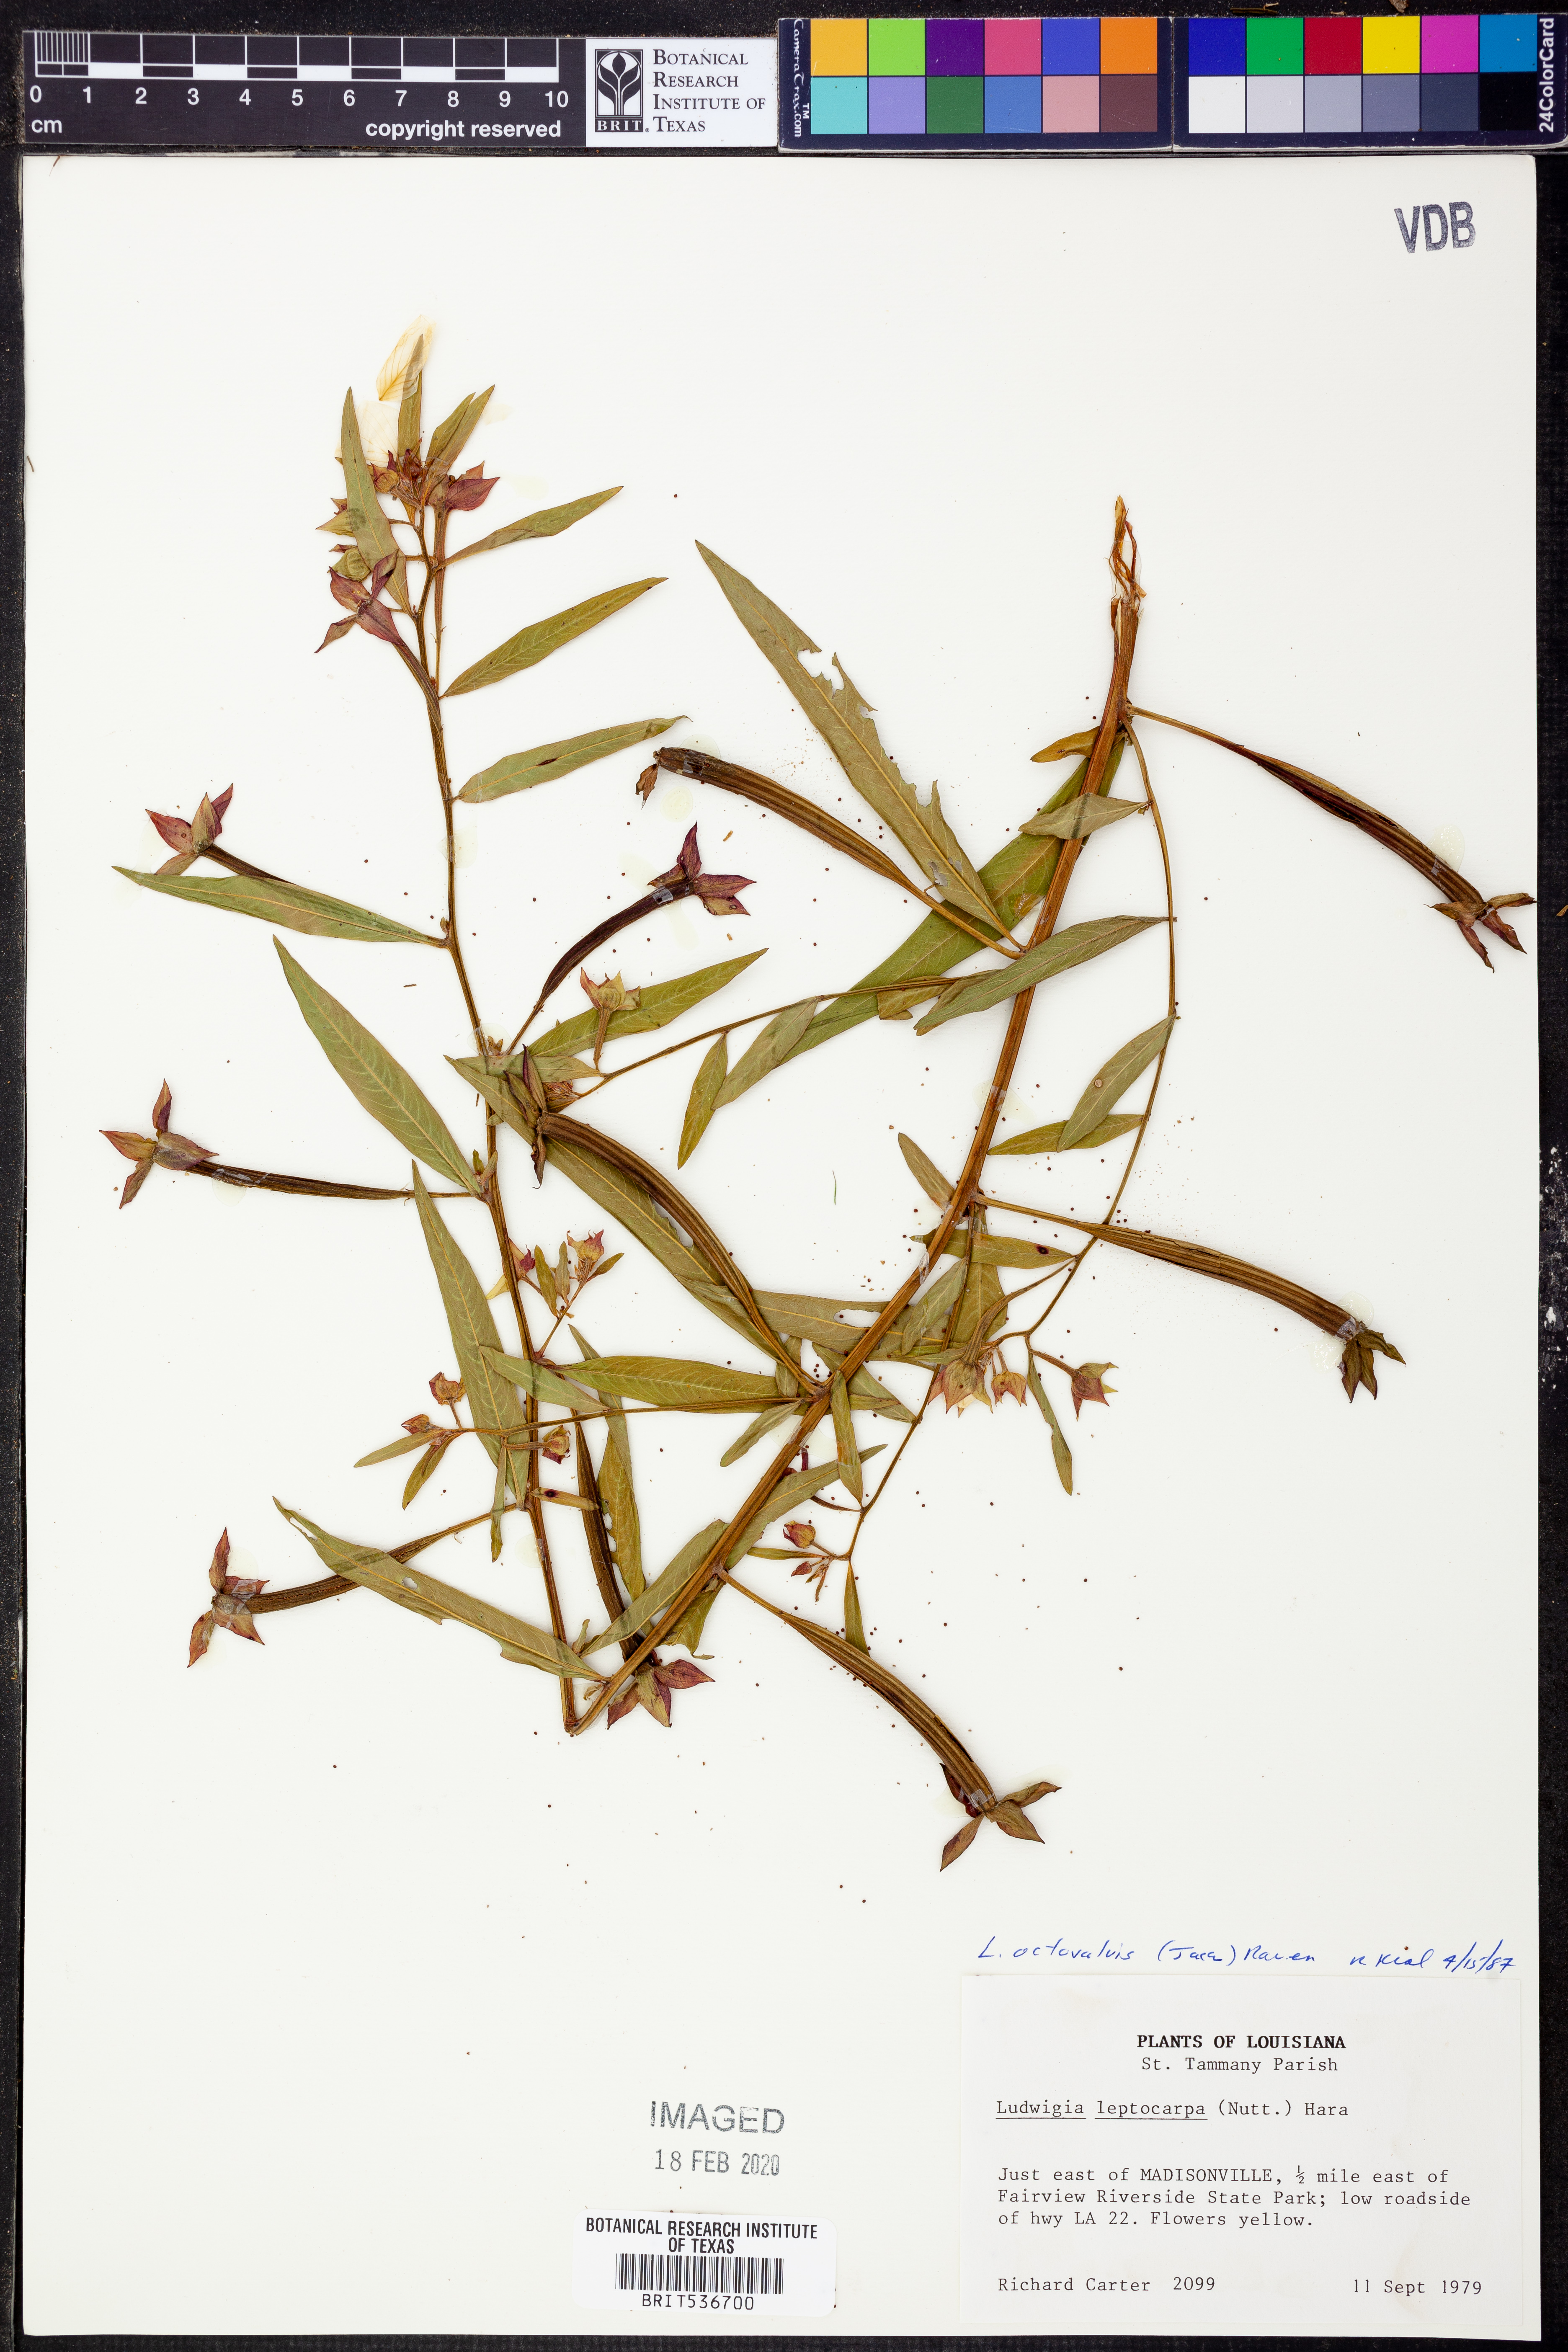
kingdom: Plantae
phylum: Tracheophyta
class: Magnoliopsida
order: Myrtales
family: Onagraceae
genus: Ludwigia
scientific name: Ludwigia octovalvis
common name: Water-primrose
